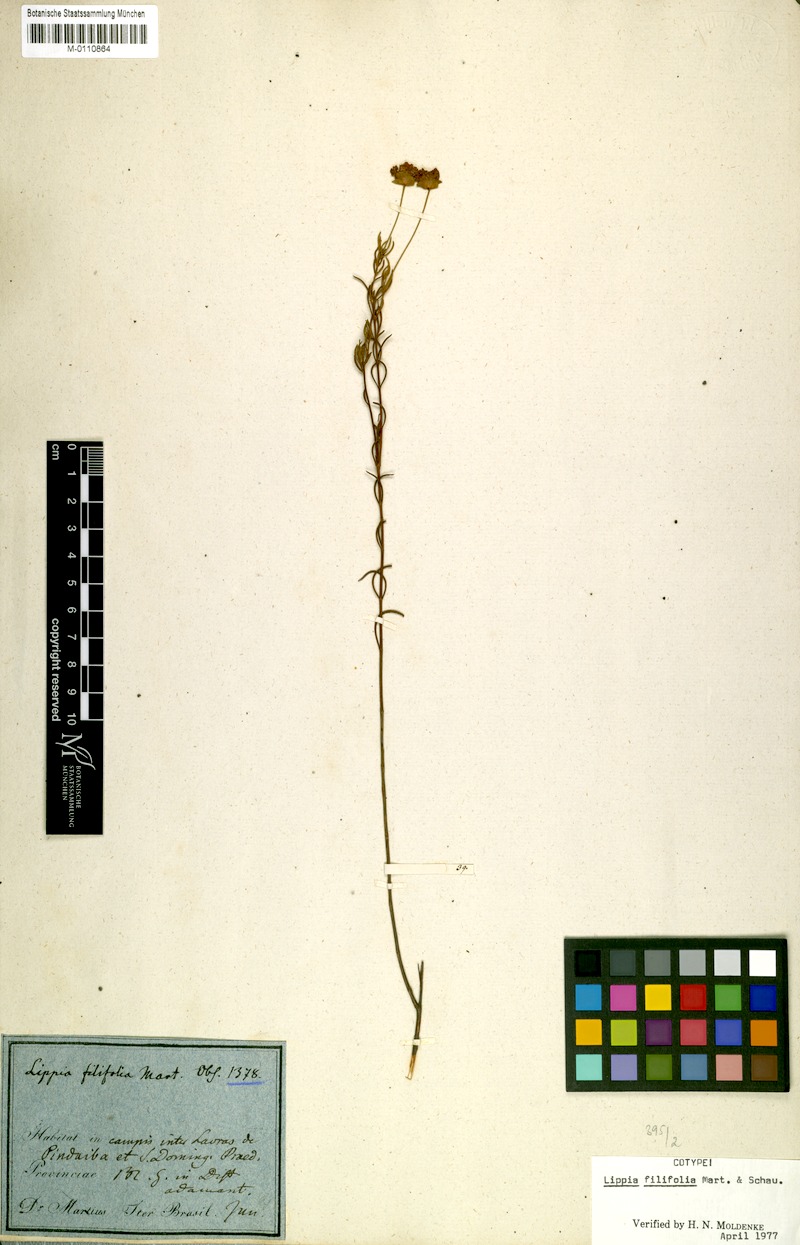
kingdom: Plantae
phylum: Tracheophyta
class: Magnoliopsida
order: Lamiales
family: Verbenaceae
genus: Lippia
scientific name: Lippia filifolia
